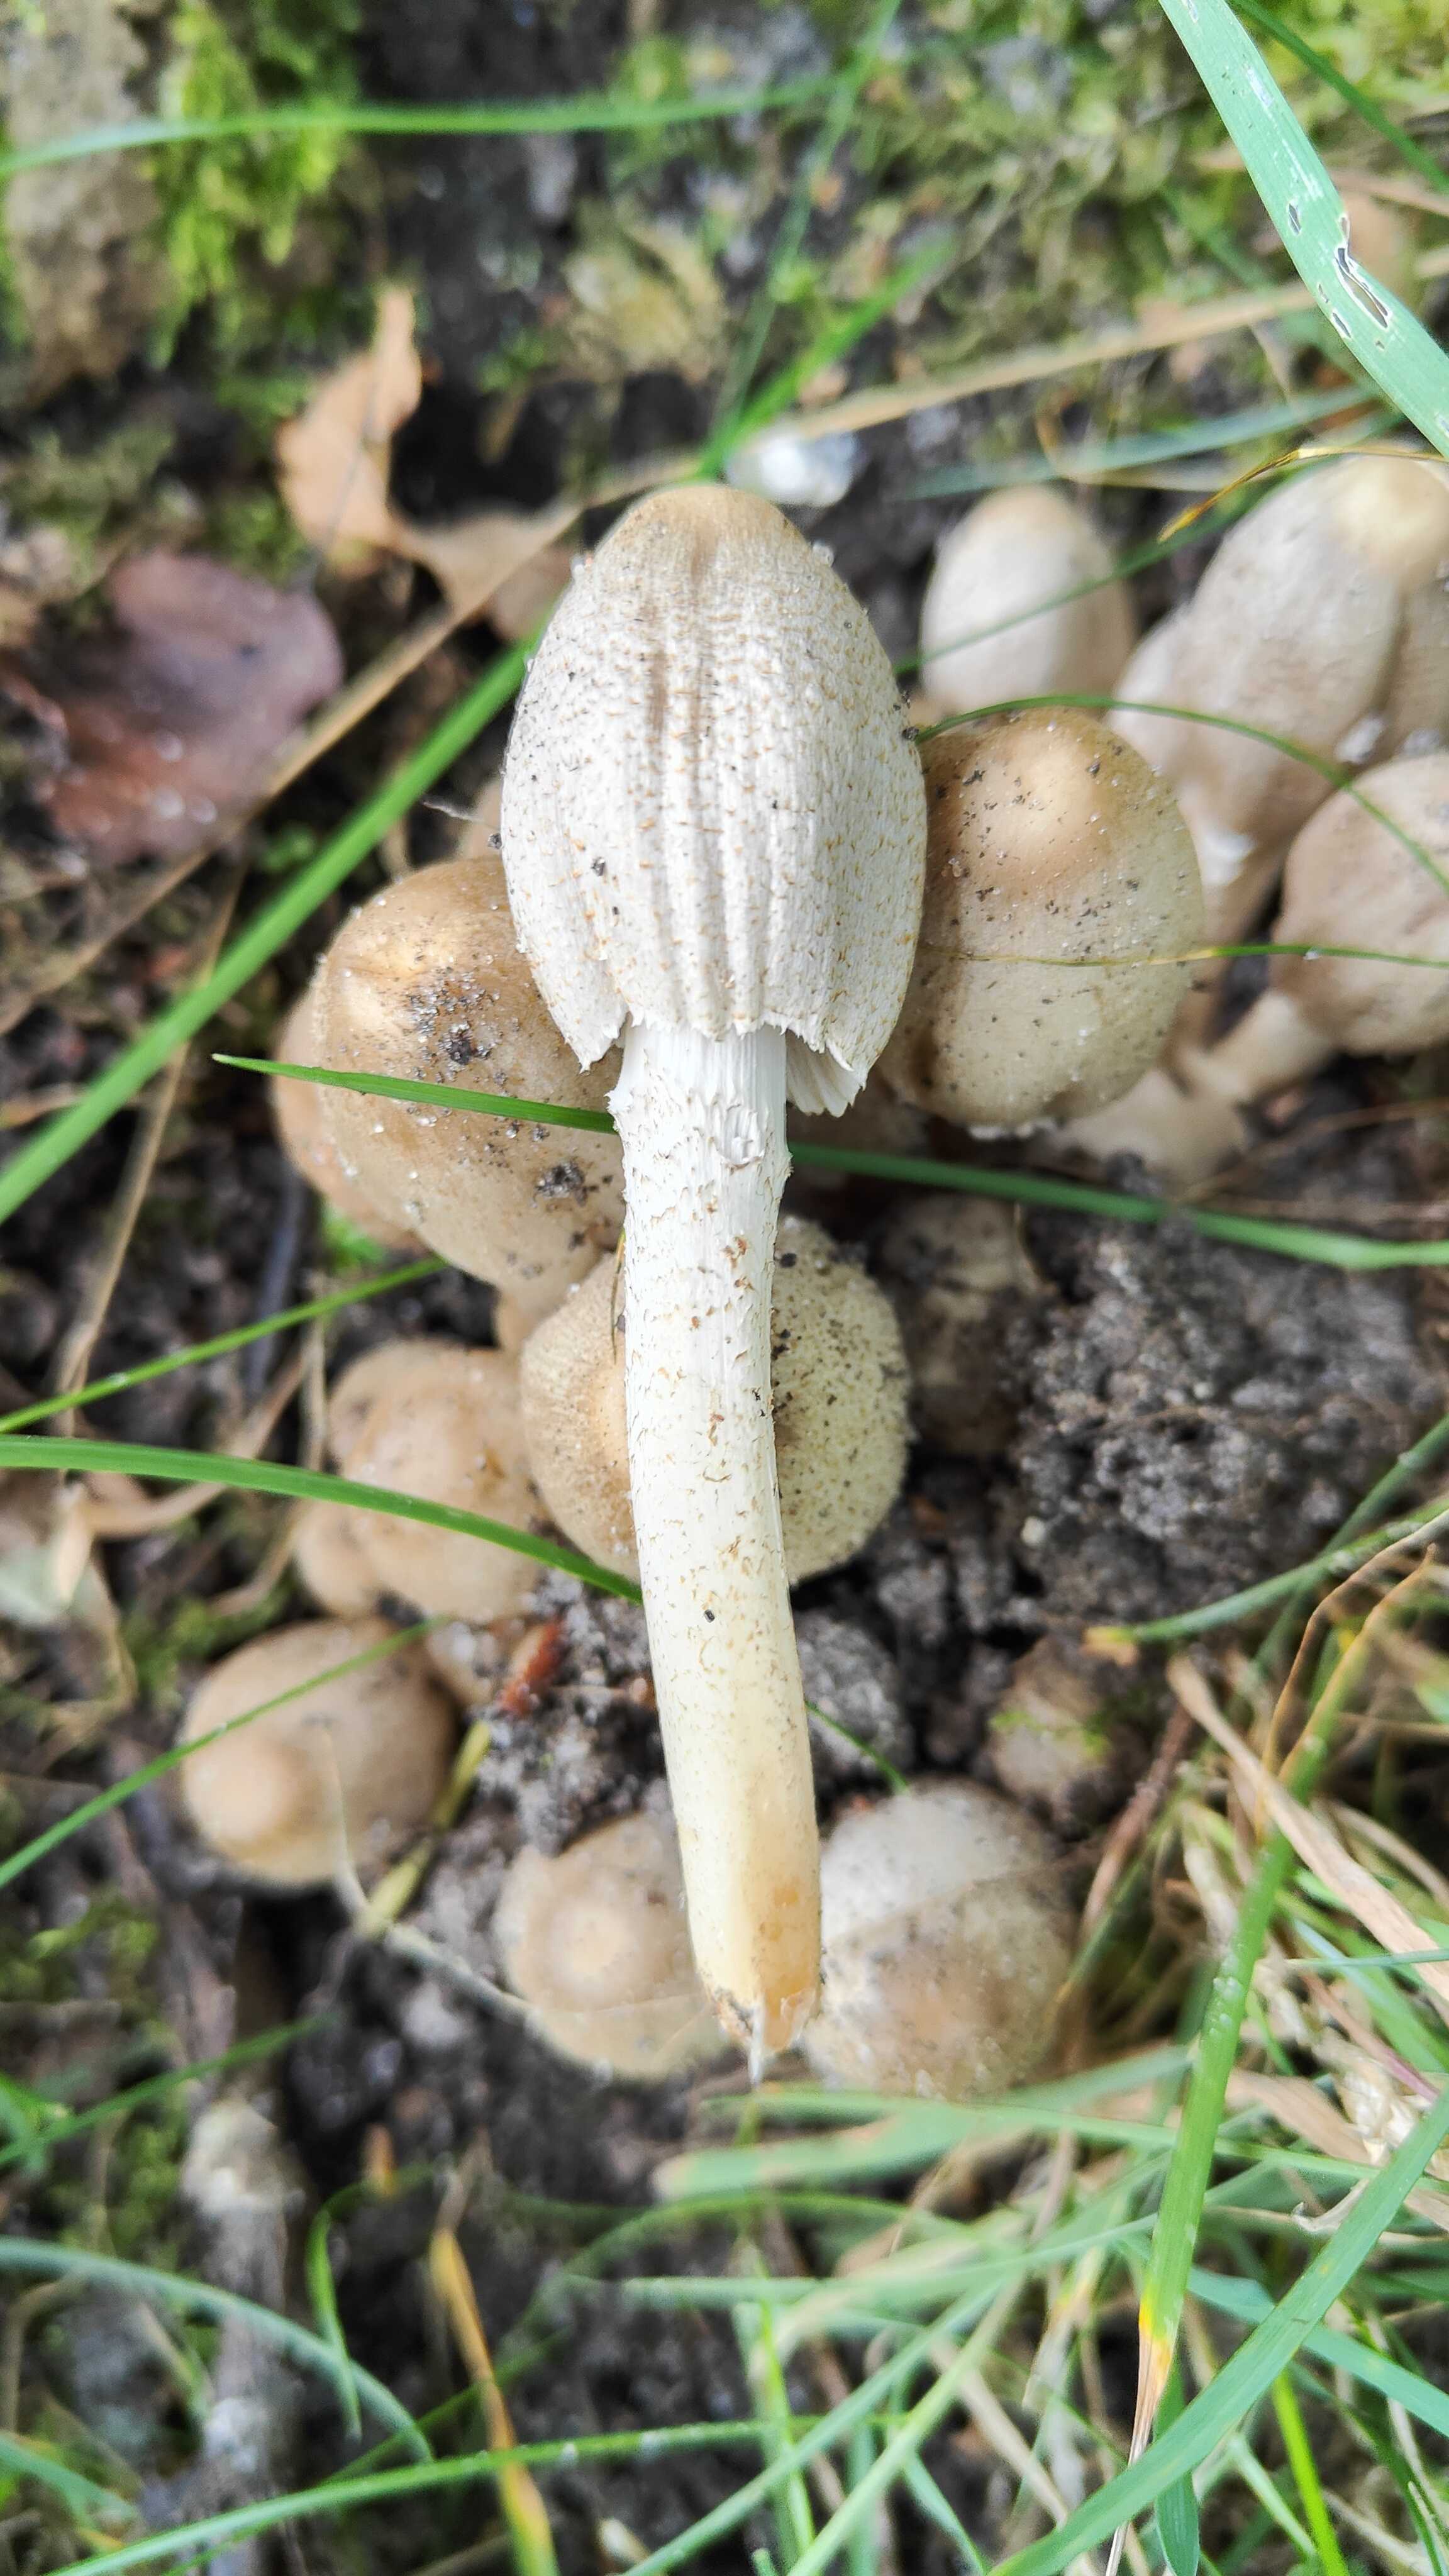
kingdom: Fungi
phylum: Basidiomycota
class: Agaricomycetes
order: Agaricales
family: Psathyrellaceae
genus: Coprinopsis
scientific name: Coprinopsis romagnesiana
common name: brunskællet blækhat
